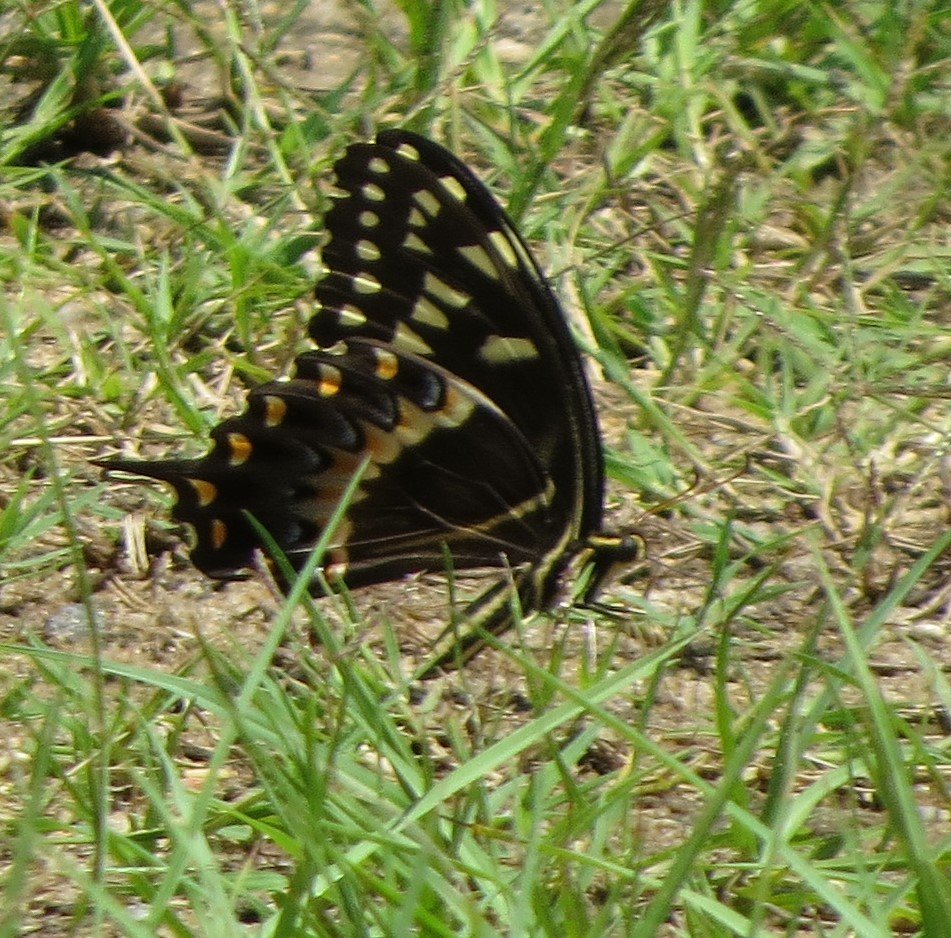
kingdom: Animalia
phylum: Arthropoda
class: Insecta
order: Lepidoptera
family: Papilionidae
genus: Pterourus
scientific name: Pterourus palamedes
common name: Palamedes Swallowtail
